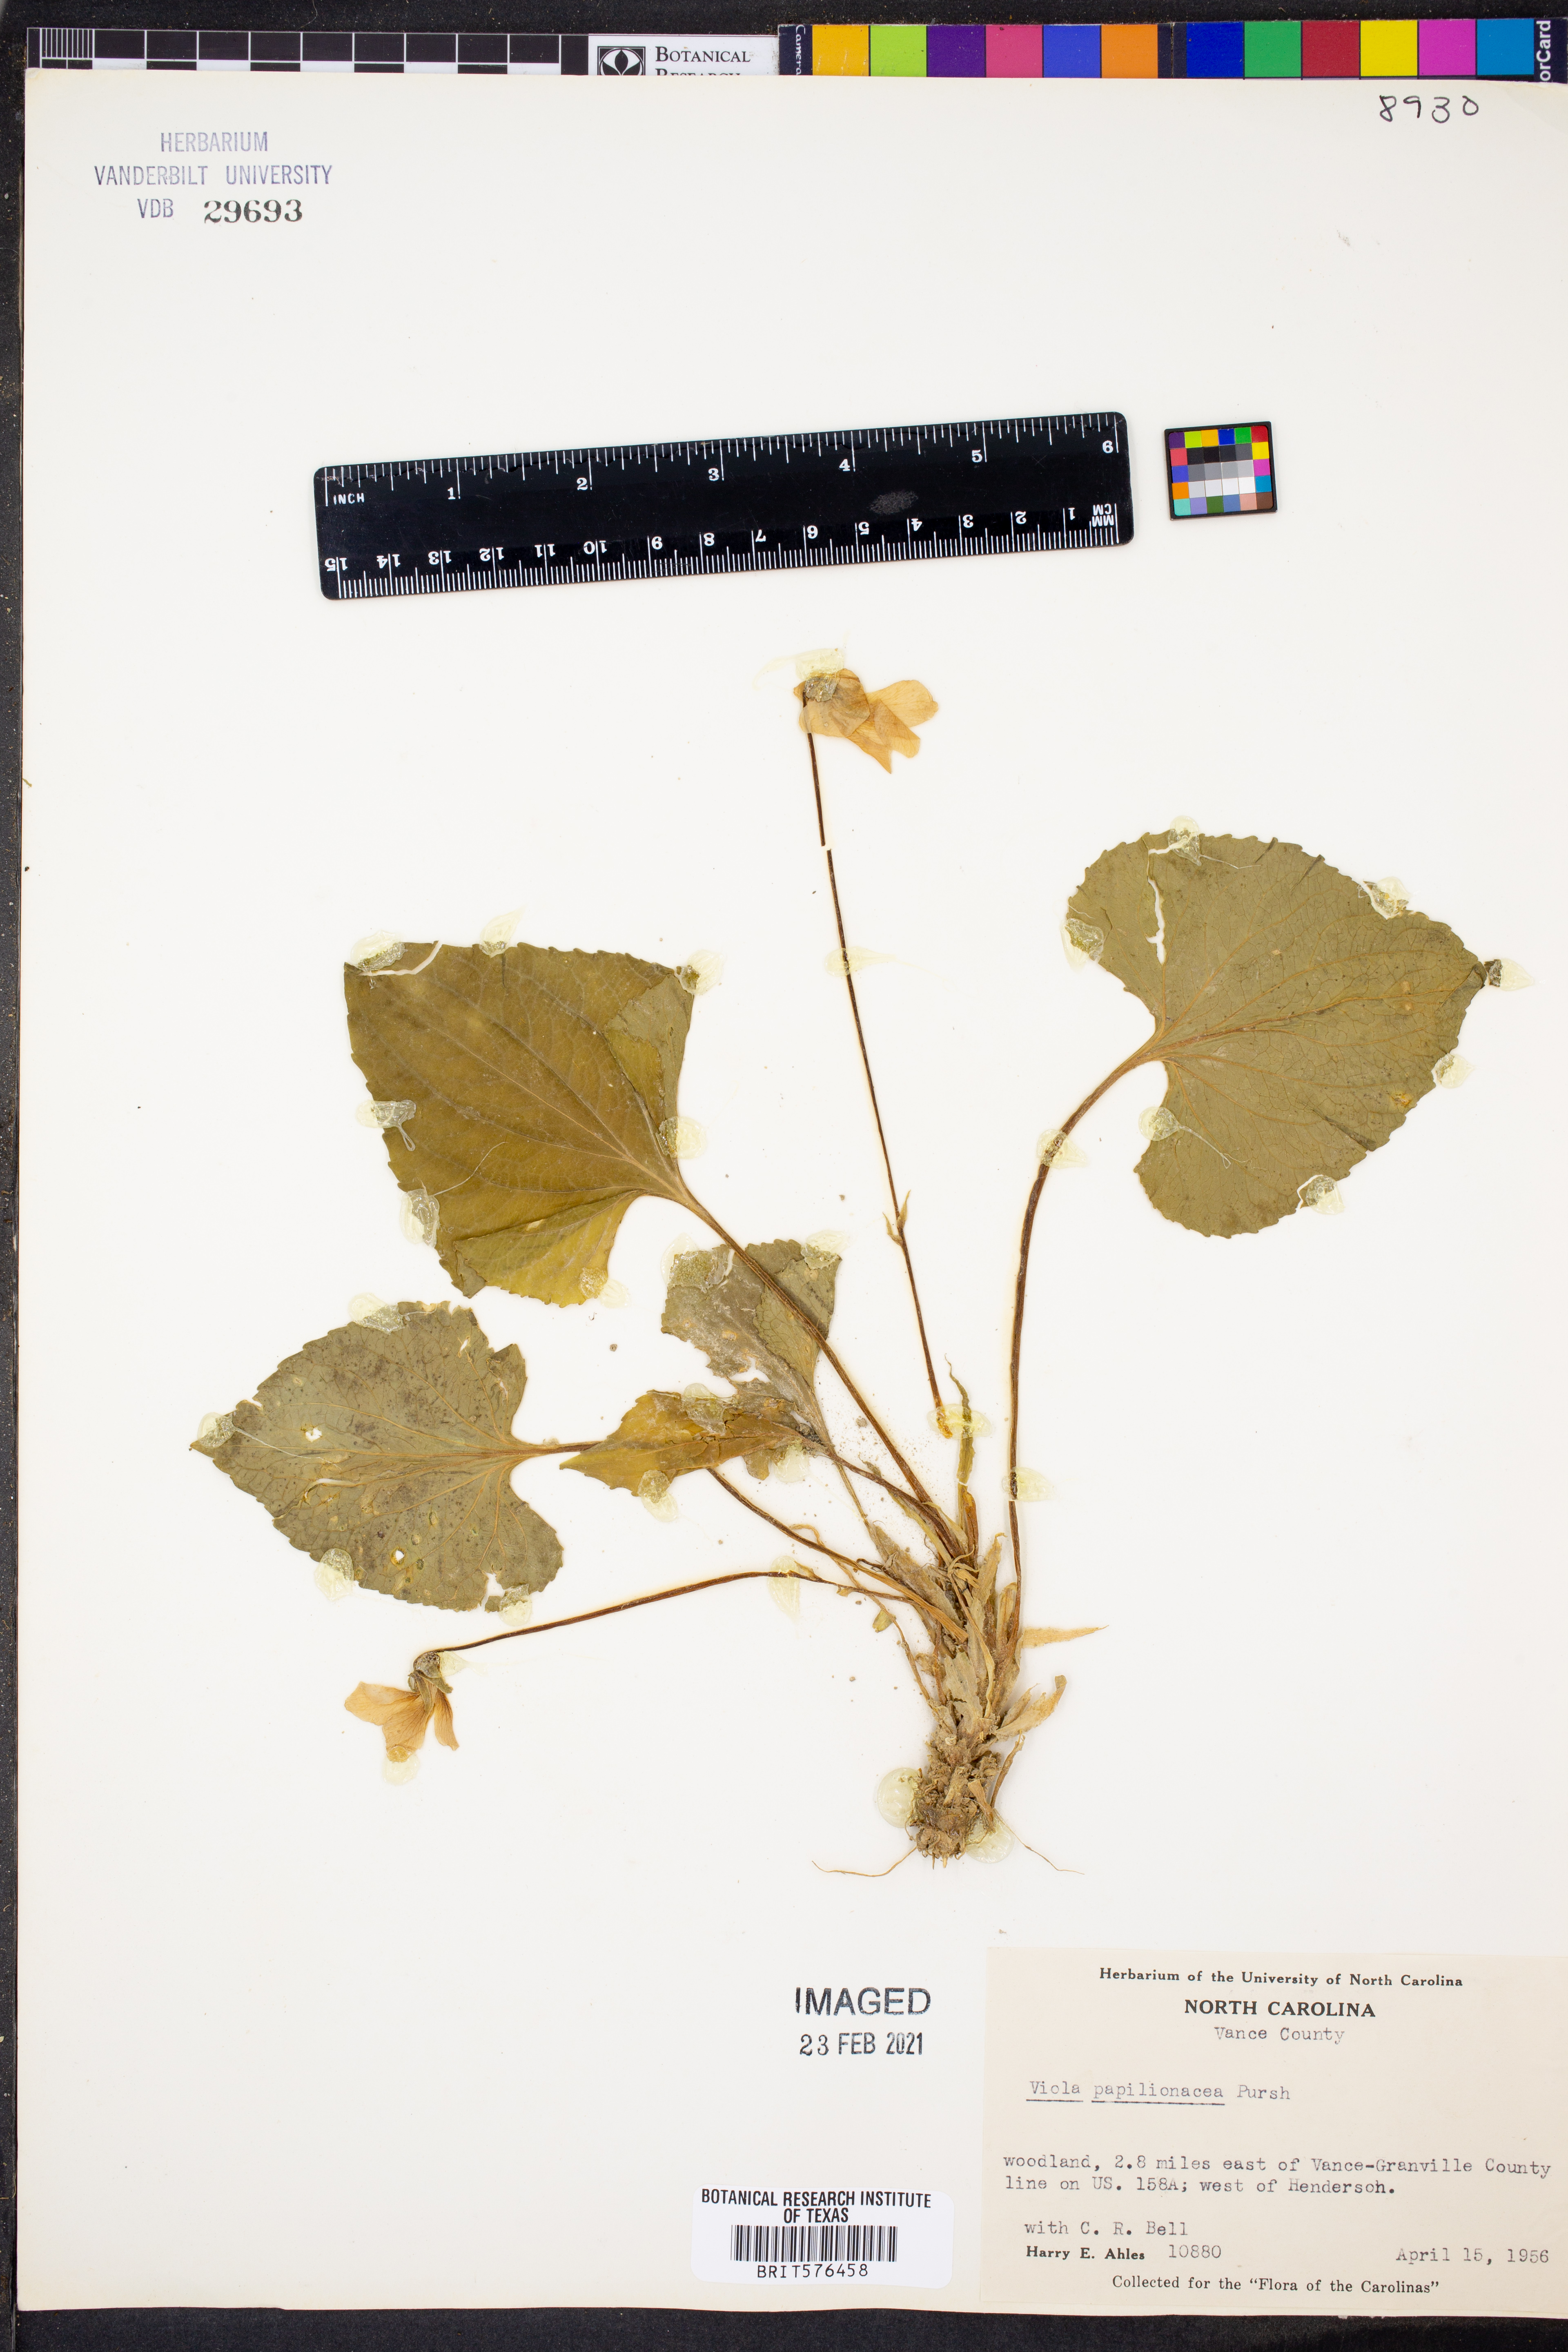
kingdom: Plantae
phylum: Tracheophyta
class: Magnoliopsida
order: Malpighiales
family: Violaceae
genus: Viola
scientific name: Viola sororia
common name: Dooryard violet
